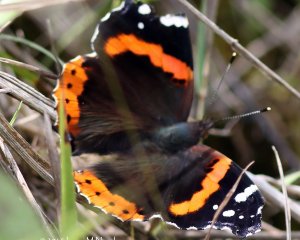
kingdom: Animalia
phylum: Arthropoda
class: Insecta
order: Lepidoptera
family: Nymphalidae
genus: Vanessa
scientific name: Vanessa atalanta
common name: Red Admiral
